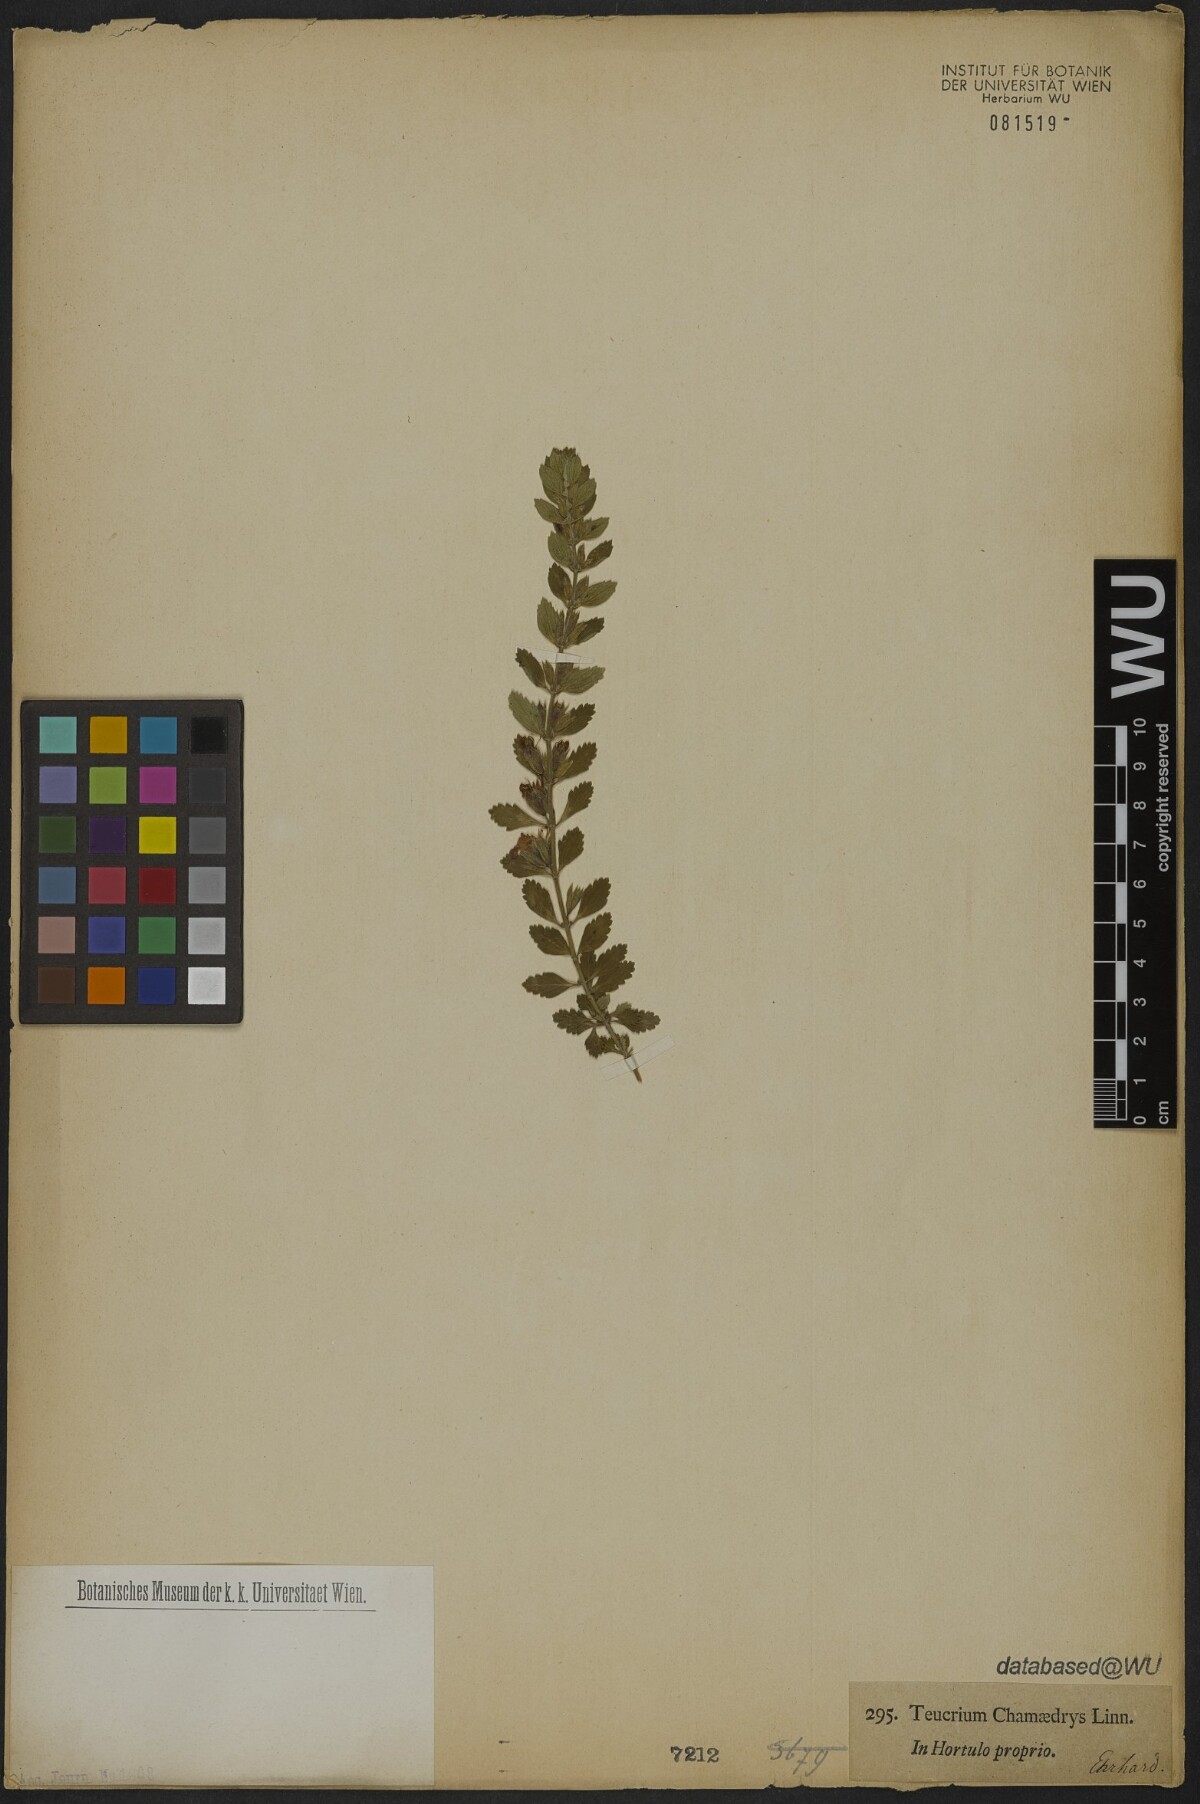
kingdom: Plantae
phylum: Tracheophyta
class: Magnoliopsida
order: Lamiales
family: Lamiaceae
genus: Teucrium
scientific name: Teucrium chamaedrys
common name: Wall germander
